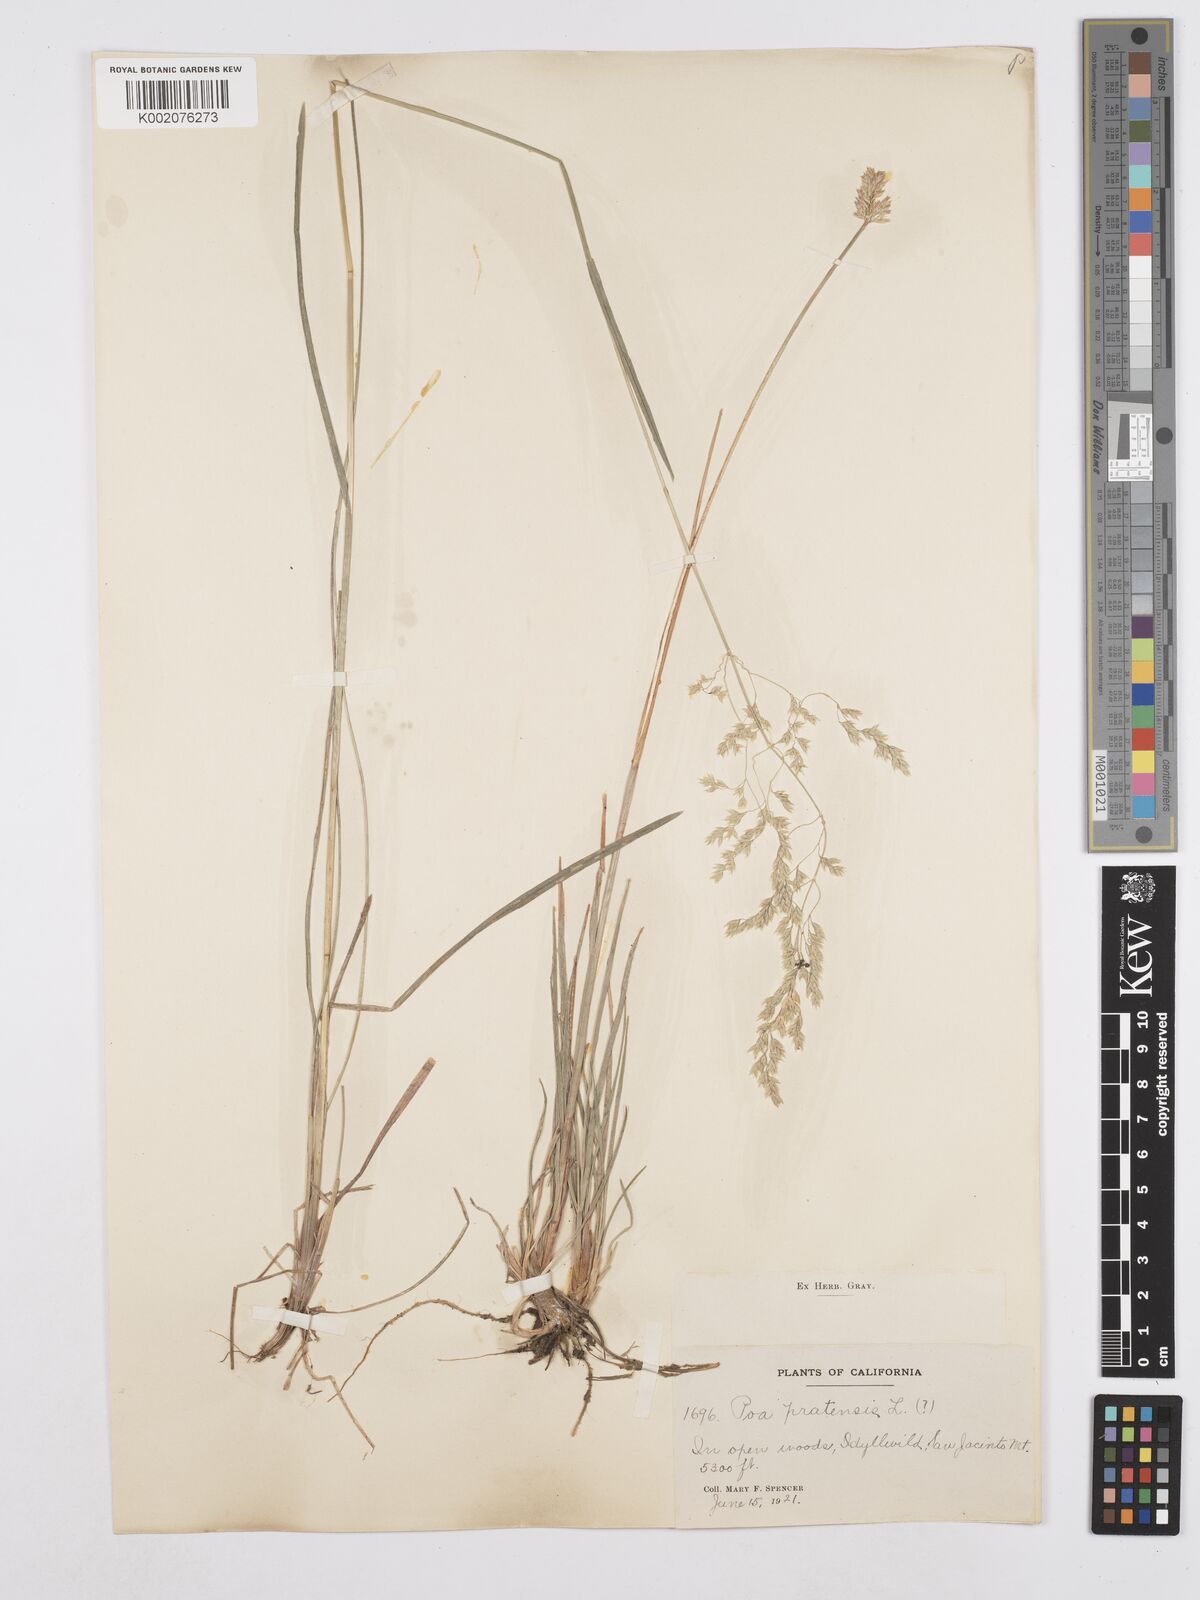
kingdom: Plantae
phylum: Tracheophyta
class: Liliopsida
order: Poales
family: Poaceae
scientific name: Poaceae
